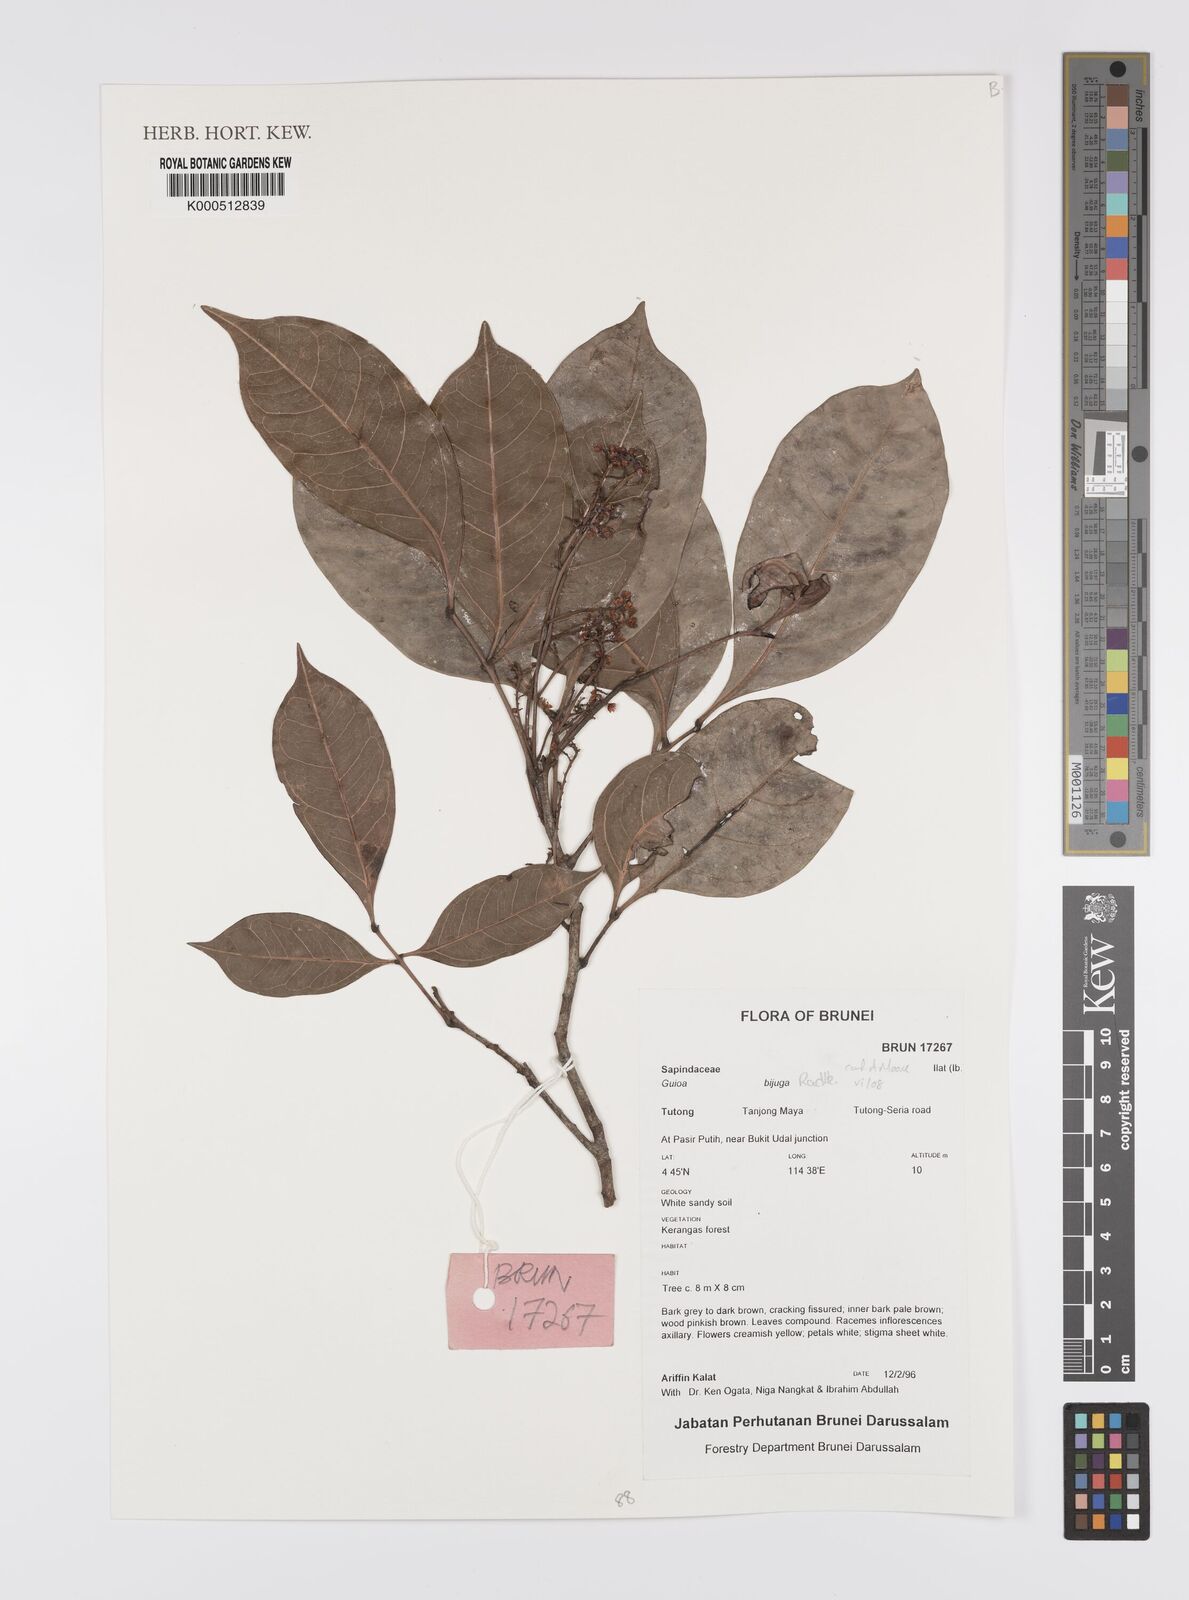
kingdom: Plantae
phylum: Tracheophyta
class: Magnoliopsida
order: Sapindales
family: Sapindaceae
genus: Guioa
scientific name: Guioa bijuga
